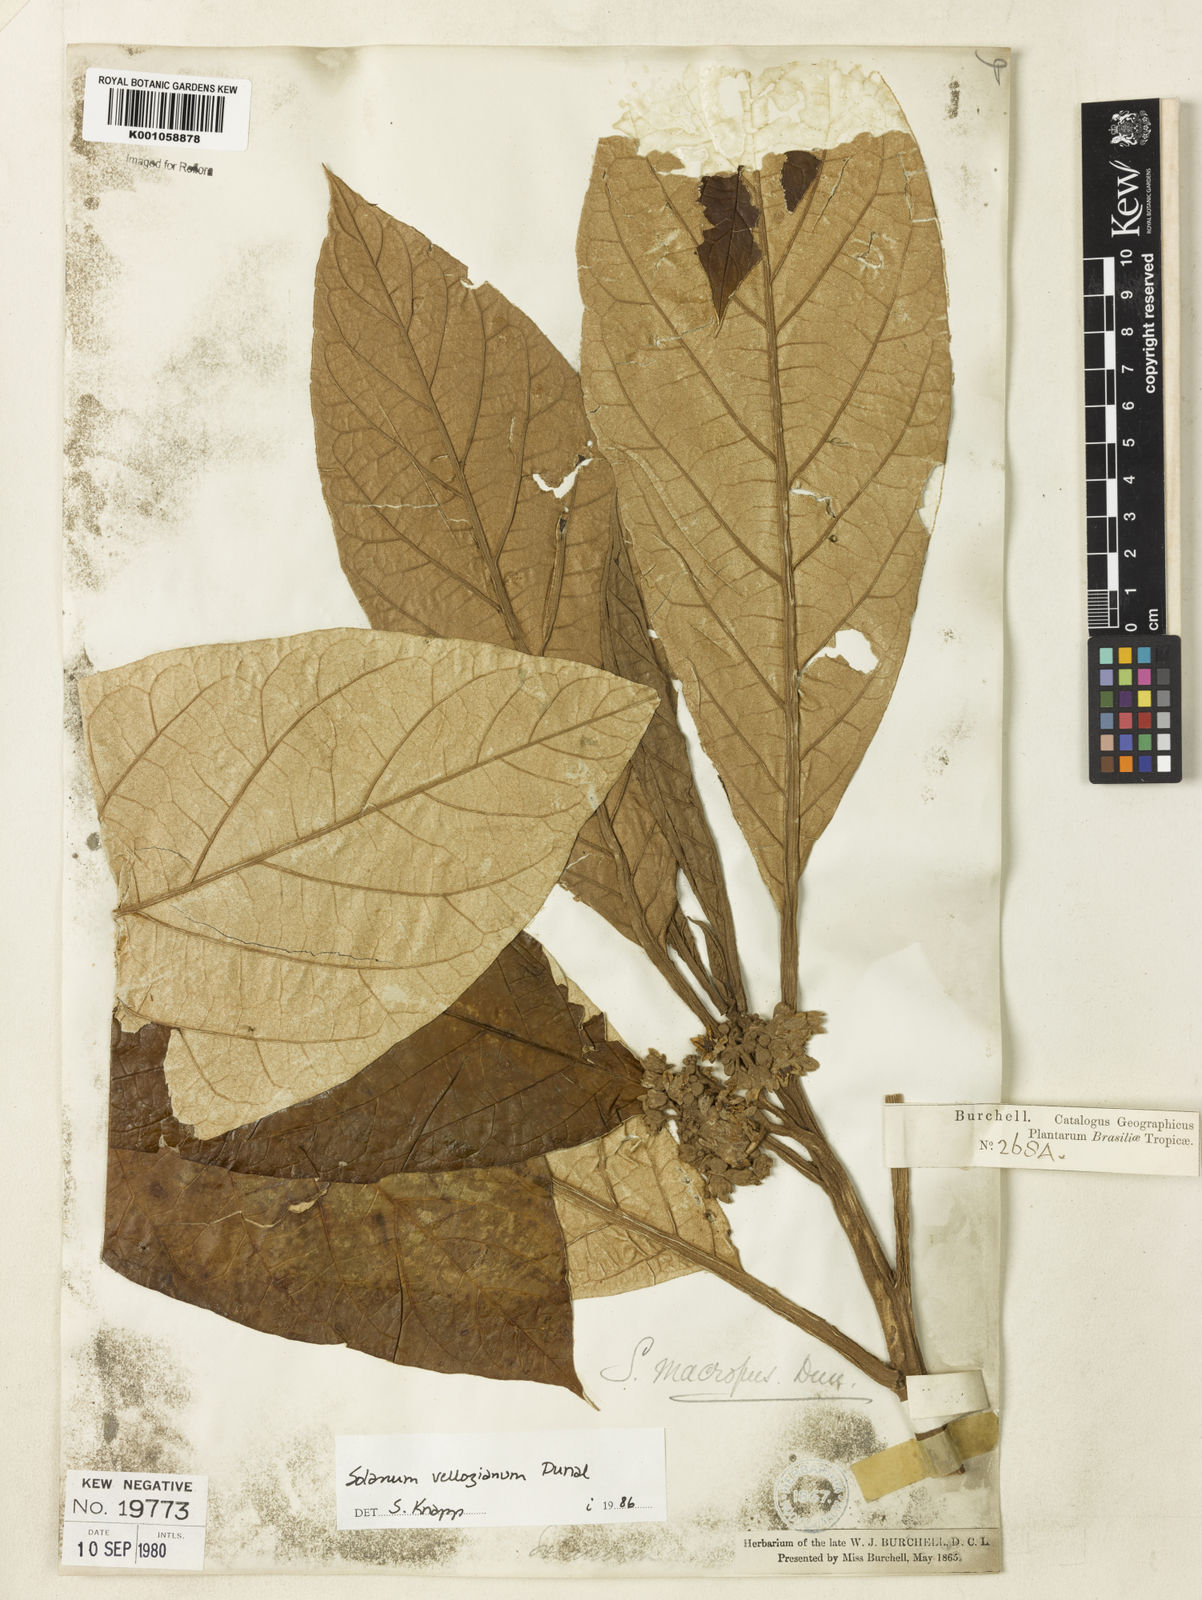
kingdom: Plantae
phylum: Tracheophyta
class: Magnoliopsida
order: Solanales
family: Solanaceae
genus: Solanum
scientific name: Solanum vellozianum
